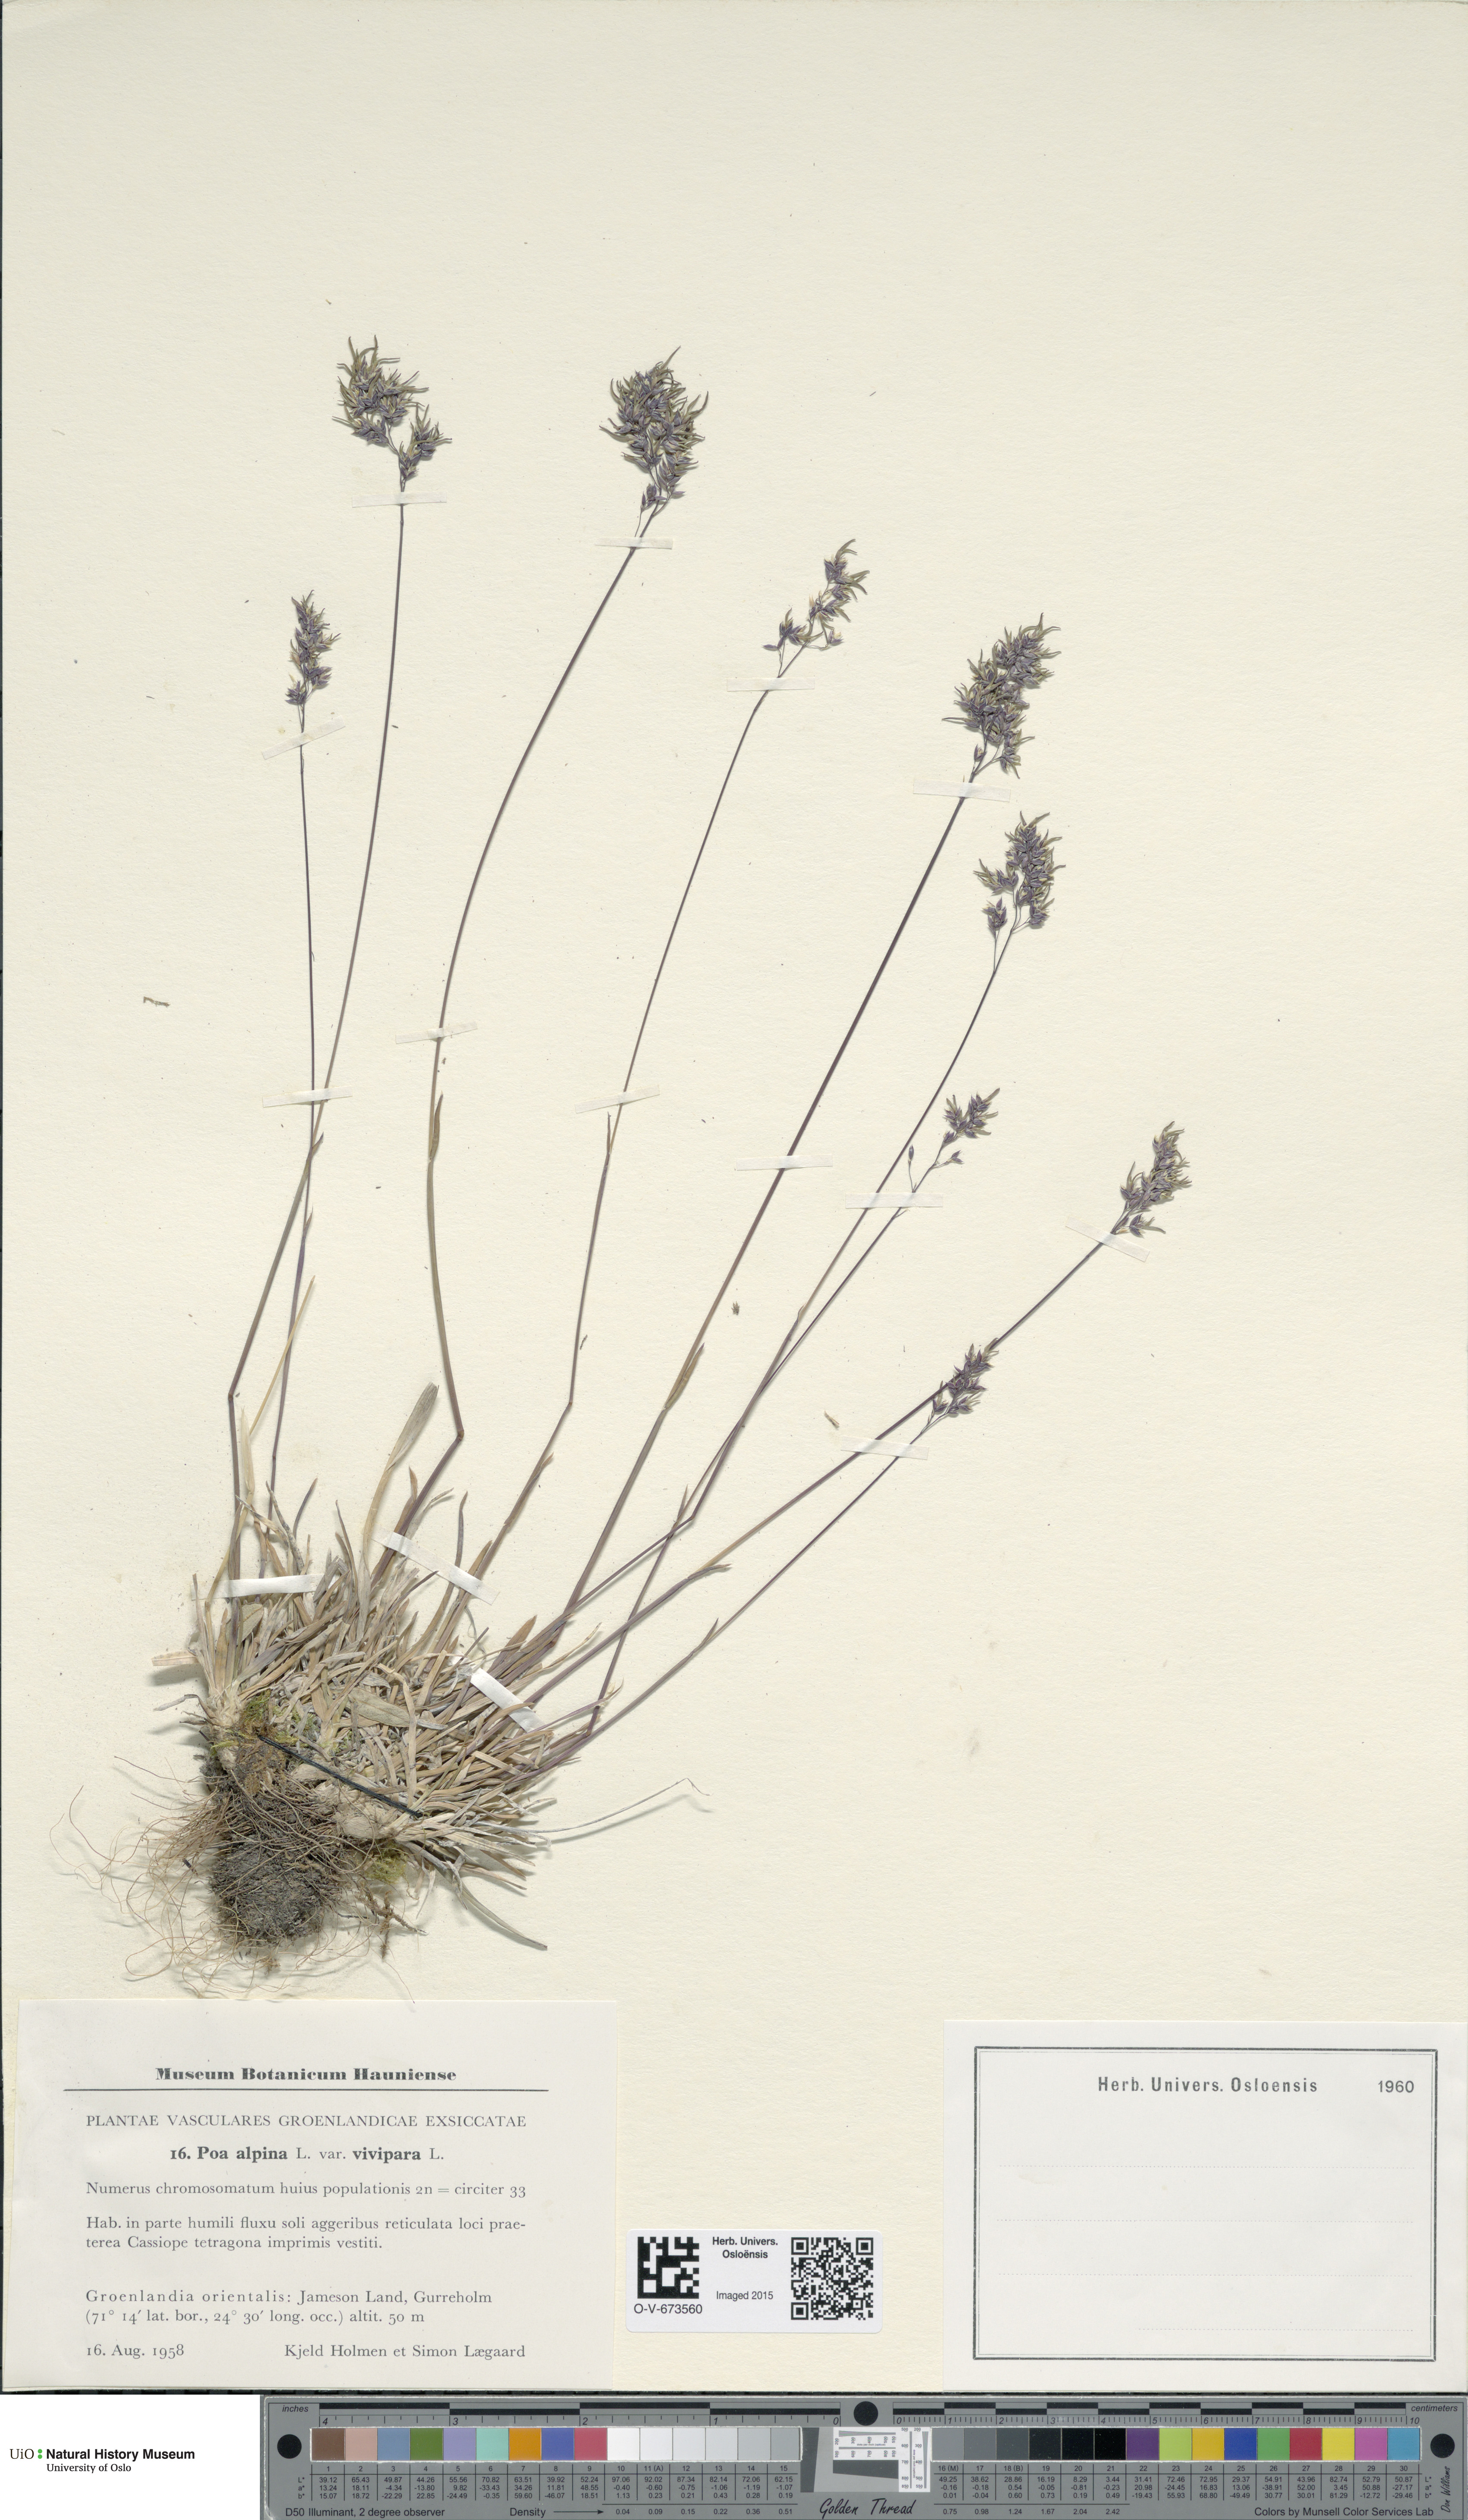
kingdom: Plantae
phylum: Tracheophyta
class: Liliopsida
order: Poales
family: Poaceae
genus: Poa
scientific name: Poa alpina
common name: Alpine bluegrass
